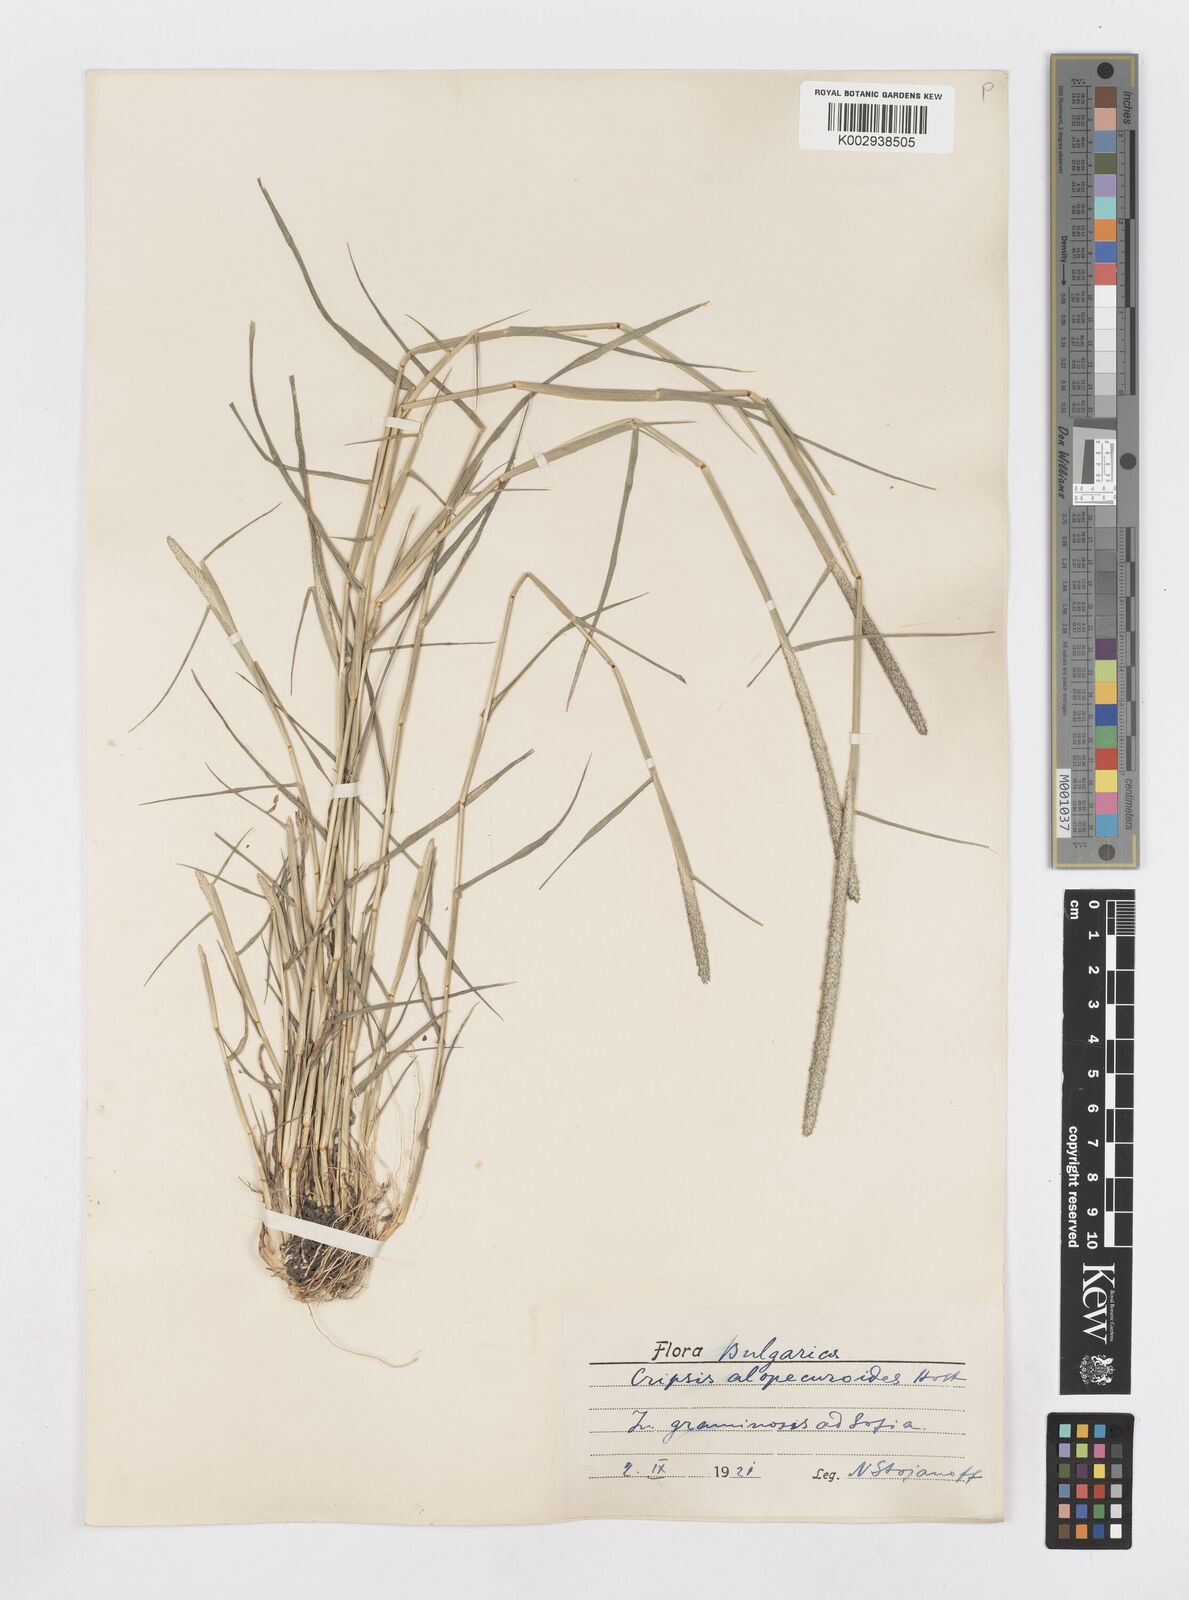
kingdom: Plantae
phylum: Tracheophyta
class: Liliopsida
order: Poales
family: Poaceae
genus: Sporobolus
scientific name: Sporobolus alopecuroides
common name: Foxtail pricklegrass
